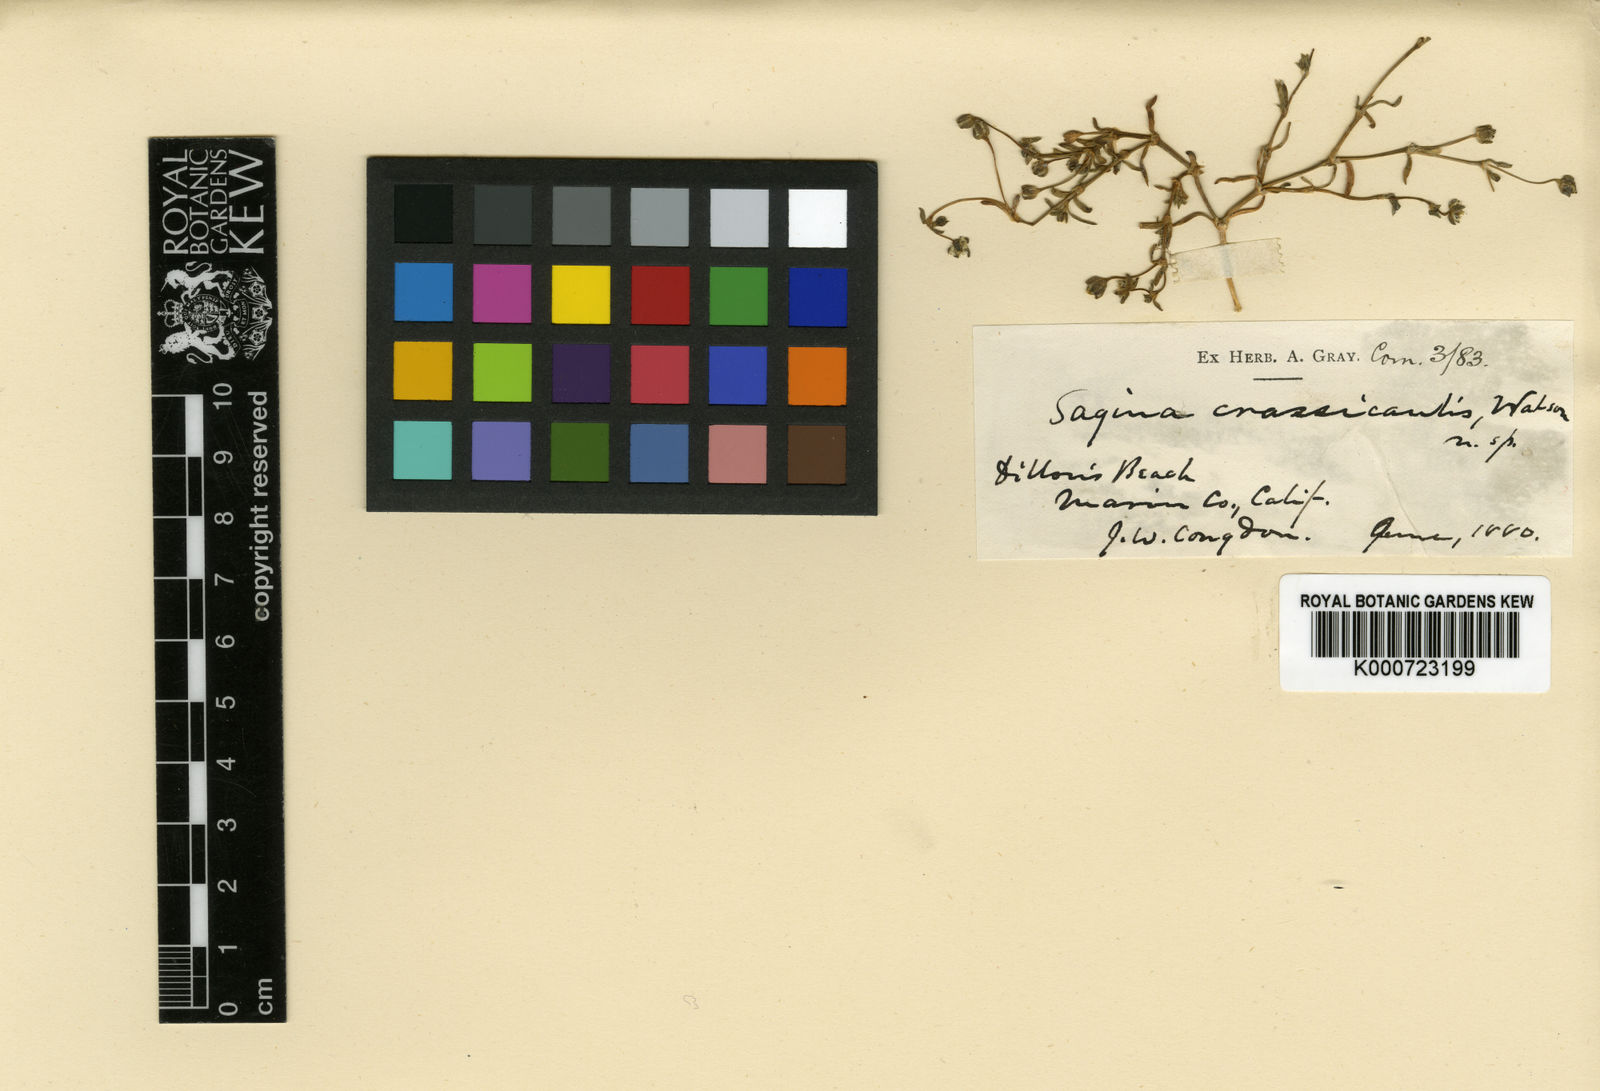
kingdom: Plantae
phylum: Tracheophyta
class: Magnoliopsida
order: Caryophyllales
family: Caryophyllaceae
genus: Sagina
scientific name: Sagina maxima
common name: Coastal pearlwort
